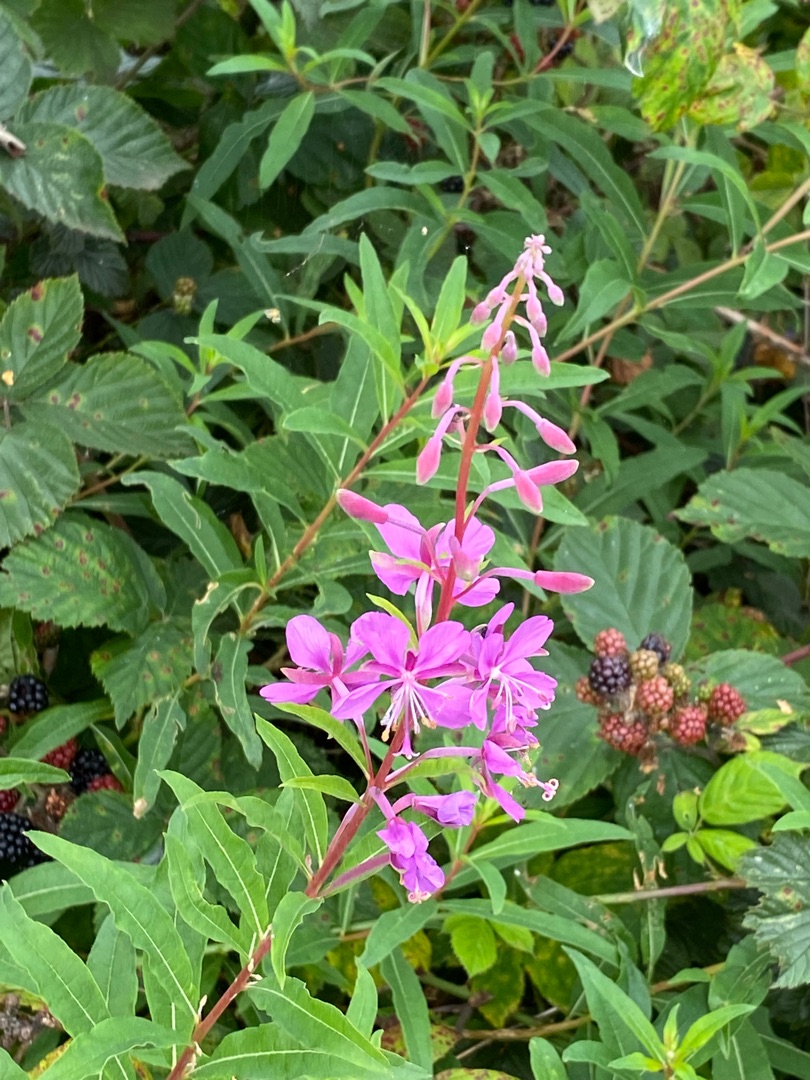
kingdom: Plantae
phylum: Tracheophyta
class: Magnoliopsida
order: Myrtales
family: Onagraceae
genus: Chamaenerion
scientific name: Chamaenerion angustifolium
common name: Gederams
